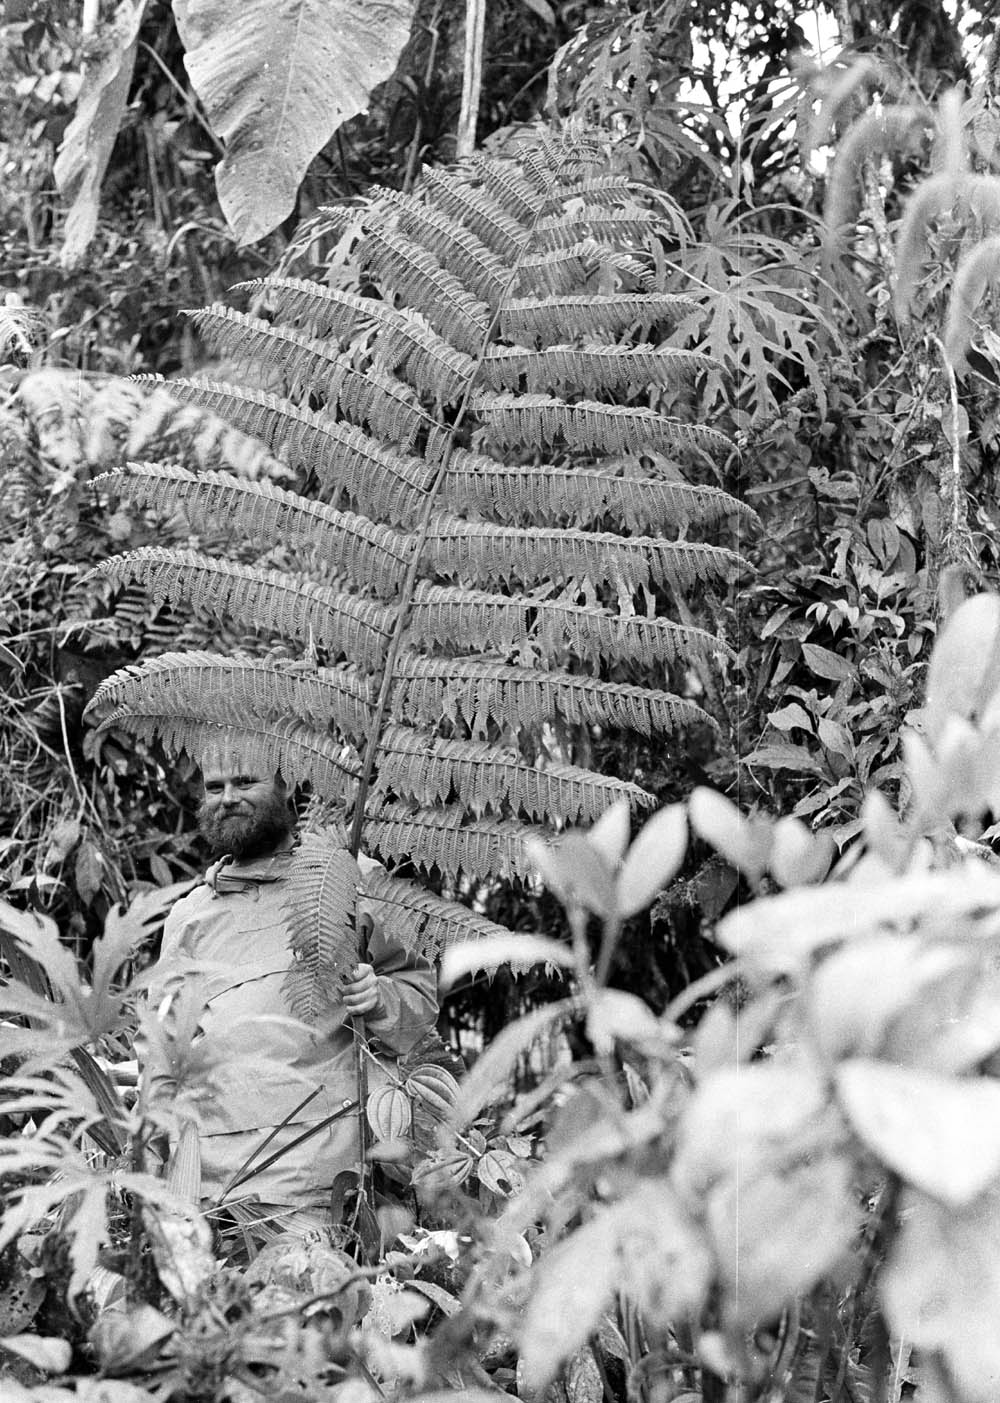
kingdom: Plantae
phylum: Tracheophyta
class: Polypodiopsida
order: Cyatheales
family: Cyatheaceae
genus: Cyathea
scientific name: Cyathea planadae
